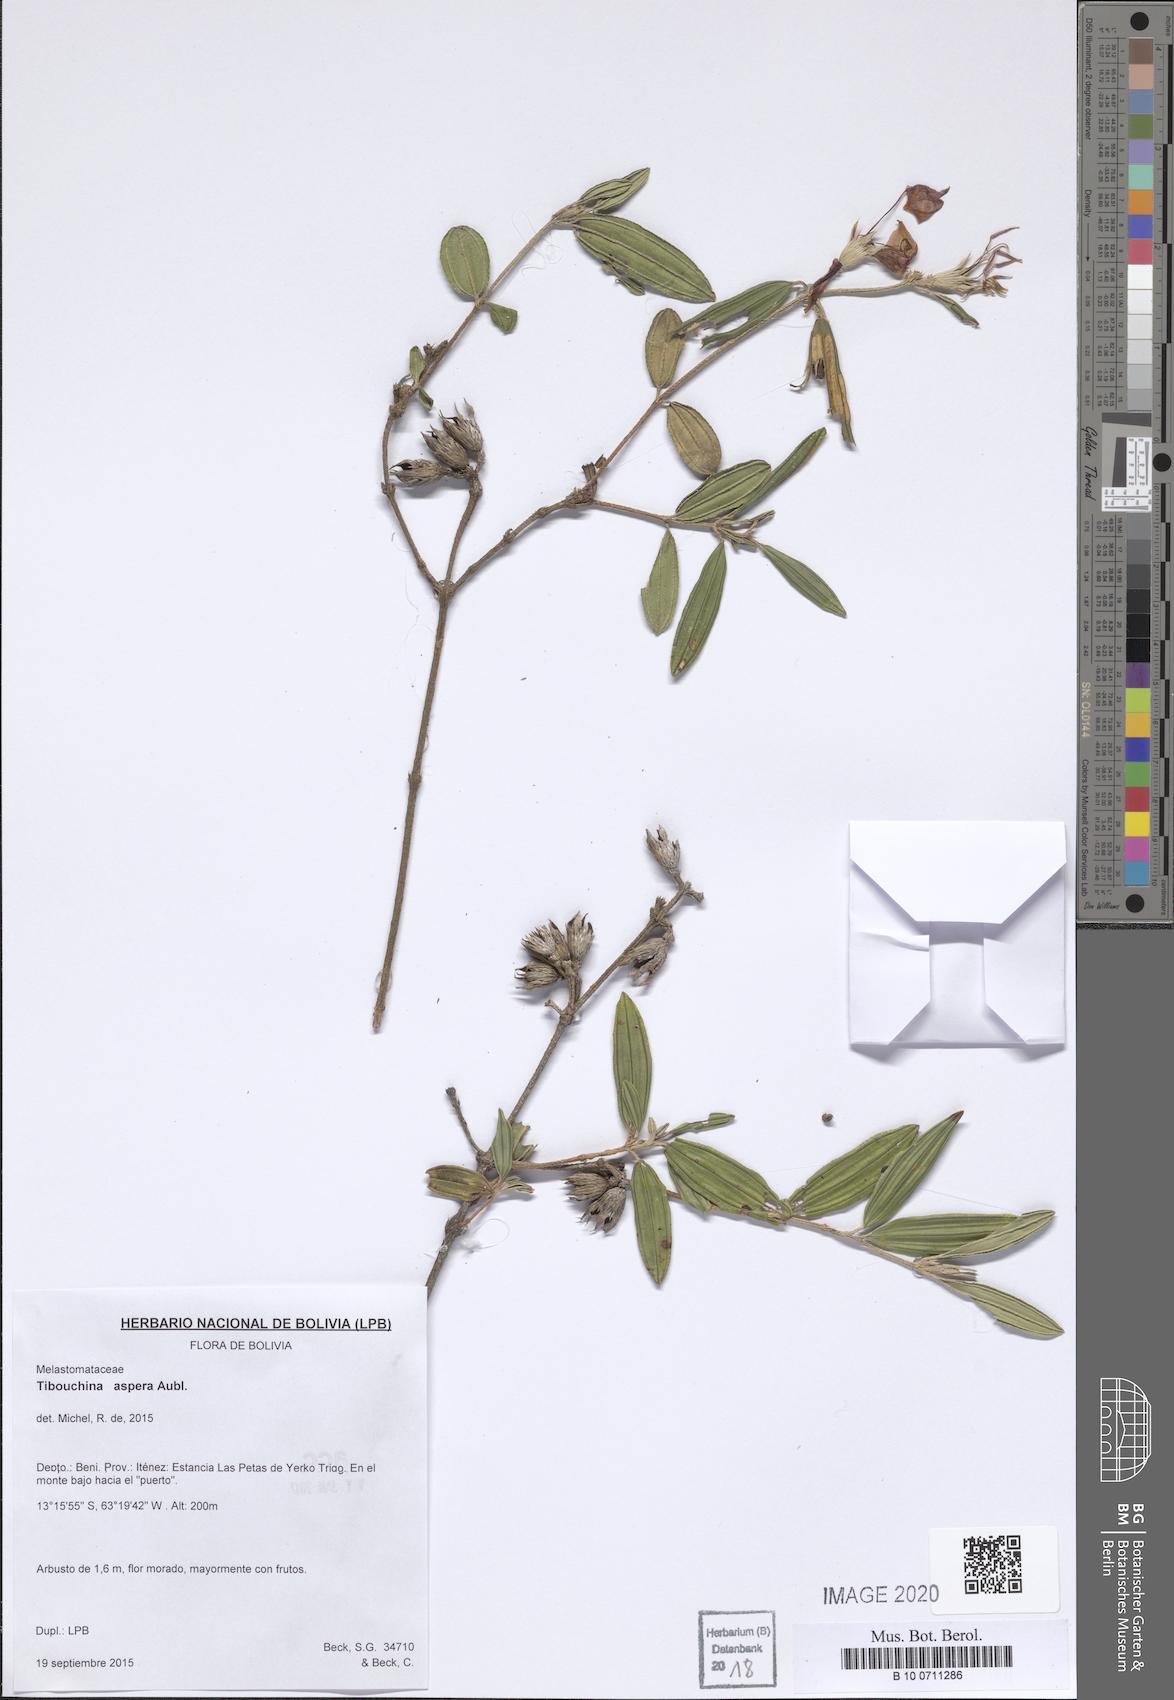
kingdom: Plantae
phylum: Tracheophyta
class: Magnoliopsida
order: Myrtales
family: Melastomataceae
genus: Tibouchina
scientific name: Tibouchina aspera
